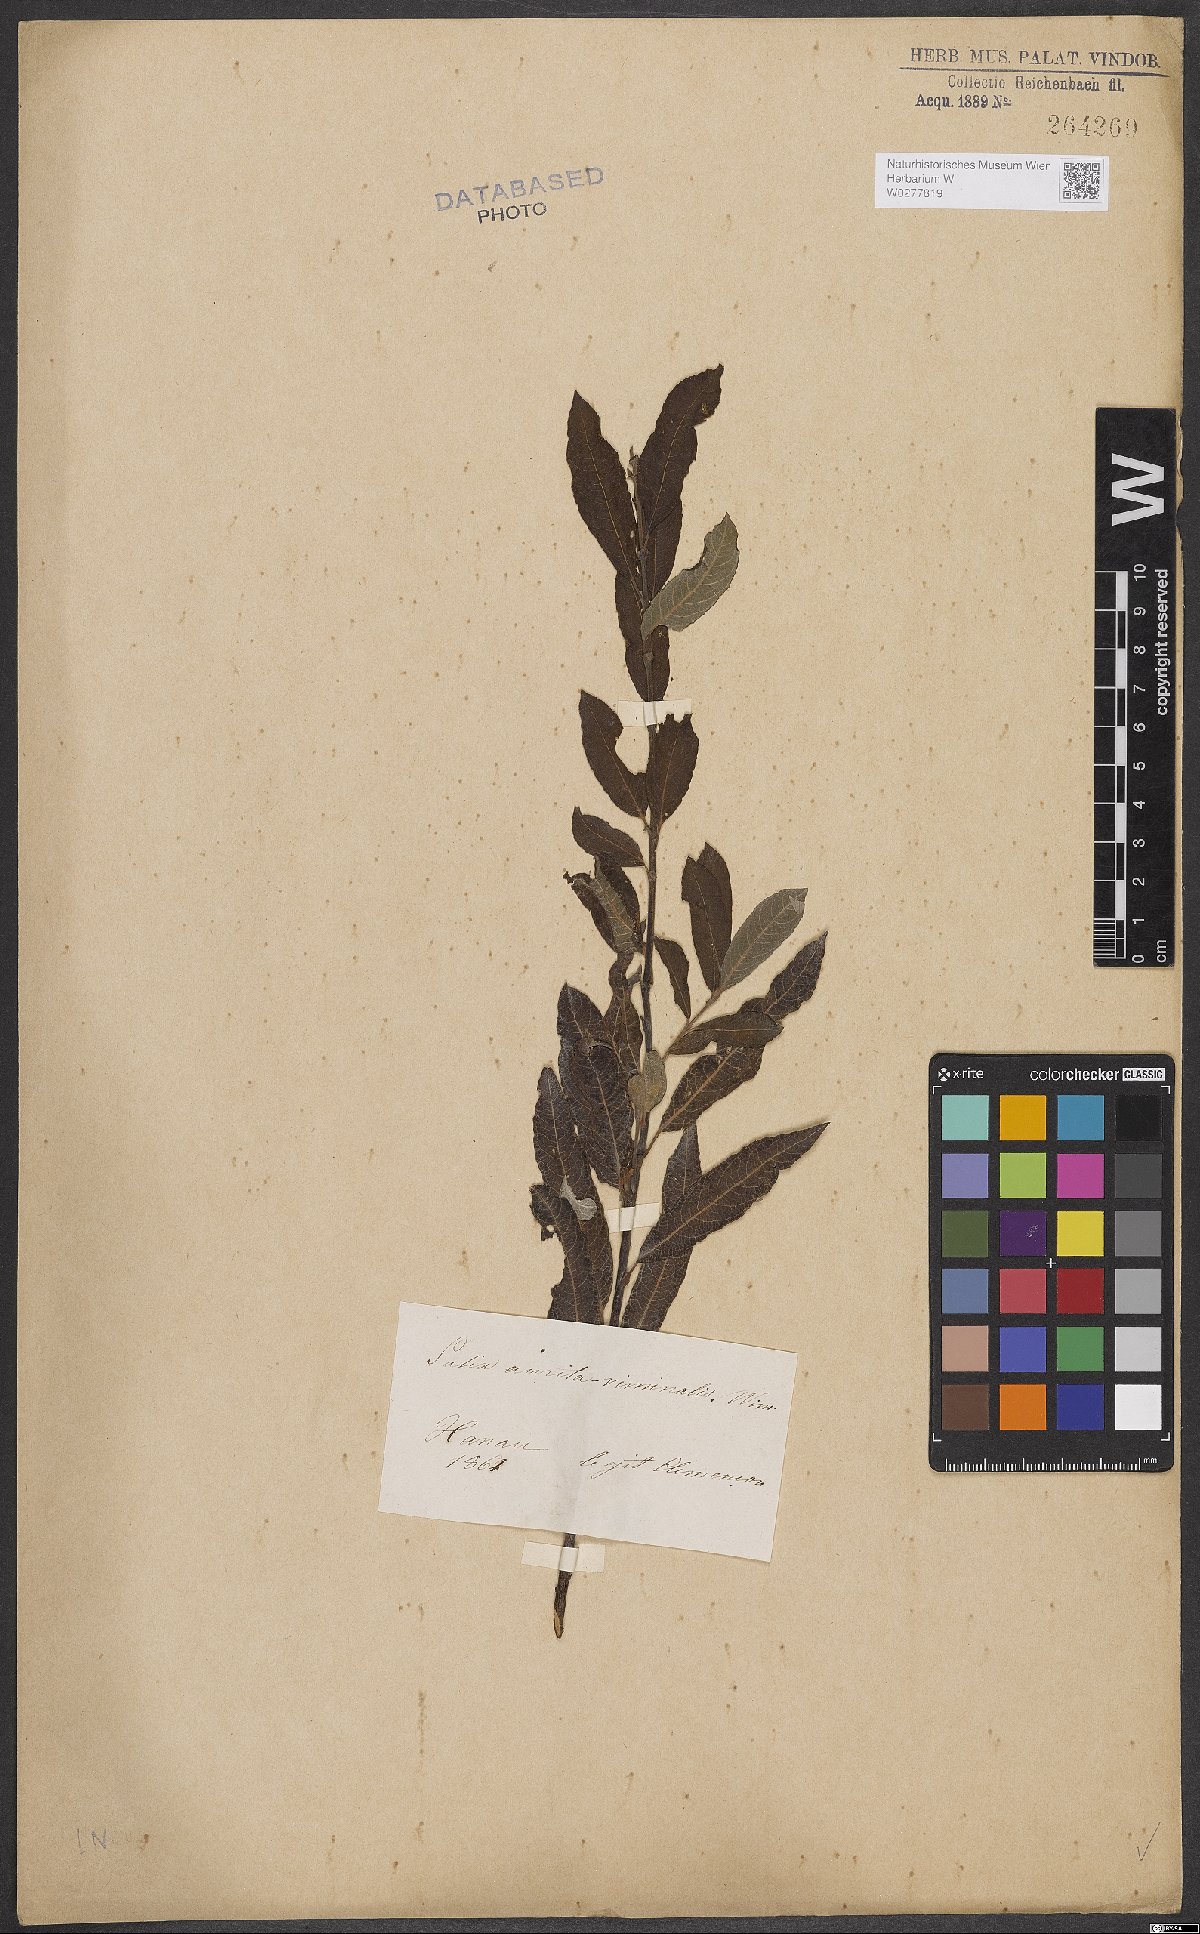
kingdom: Plantae
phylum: Tracheophyta
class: Magnoliopsida
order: Malpighiales
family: Salicaceae
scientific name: Salicaceae
